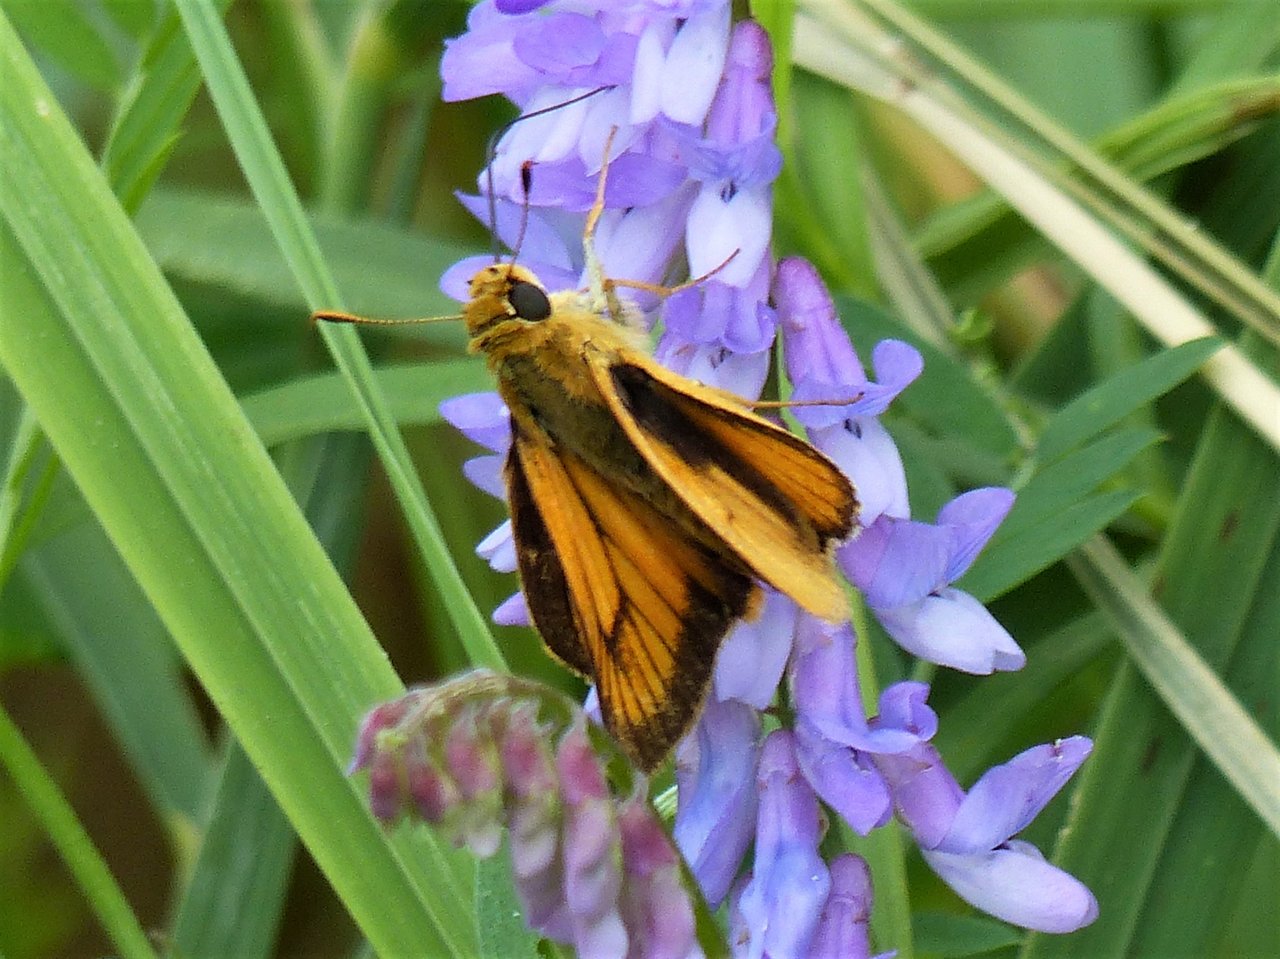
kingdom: Animalia
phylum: Arthropoda
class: Insecta
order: Lepidoptera
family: Hesperiidae
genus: Atrytone
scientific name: Atrytone delaware
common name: Delaware Skipper
